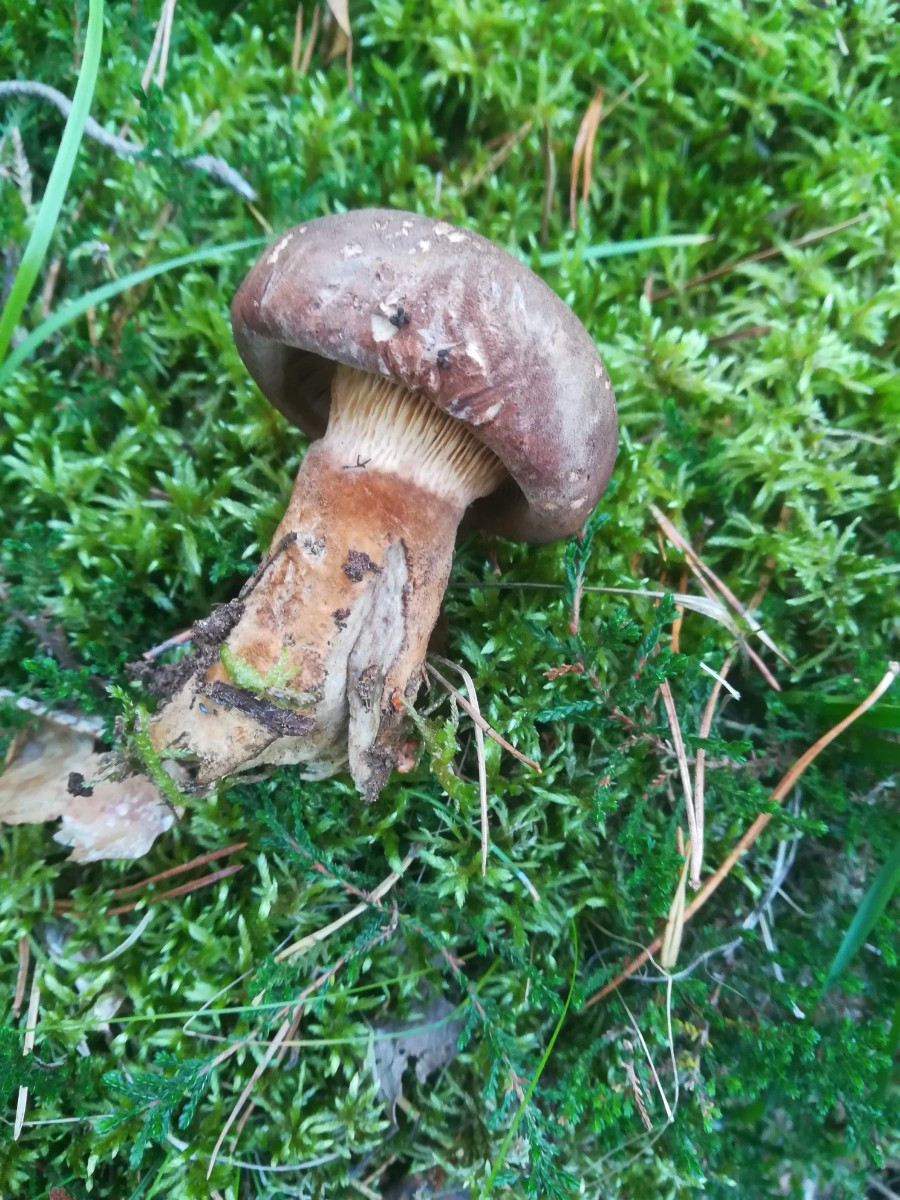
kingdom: Fungi
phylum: Basidiomycota
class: Agaricomycetes
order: Boletales
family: Tapinellaceae
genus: Tapinella
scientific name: Tapinella atrotomentosa
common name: sortfiltet viftesvamp
